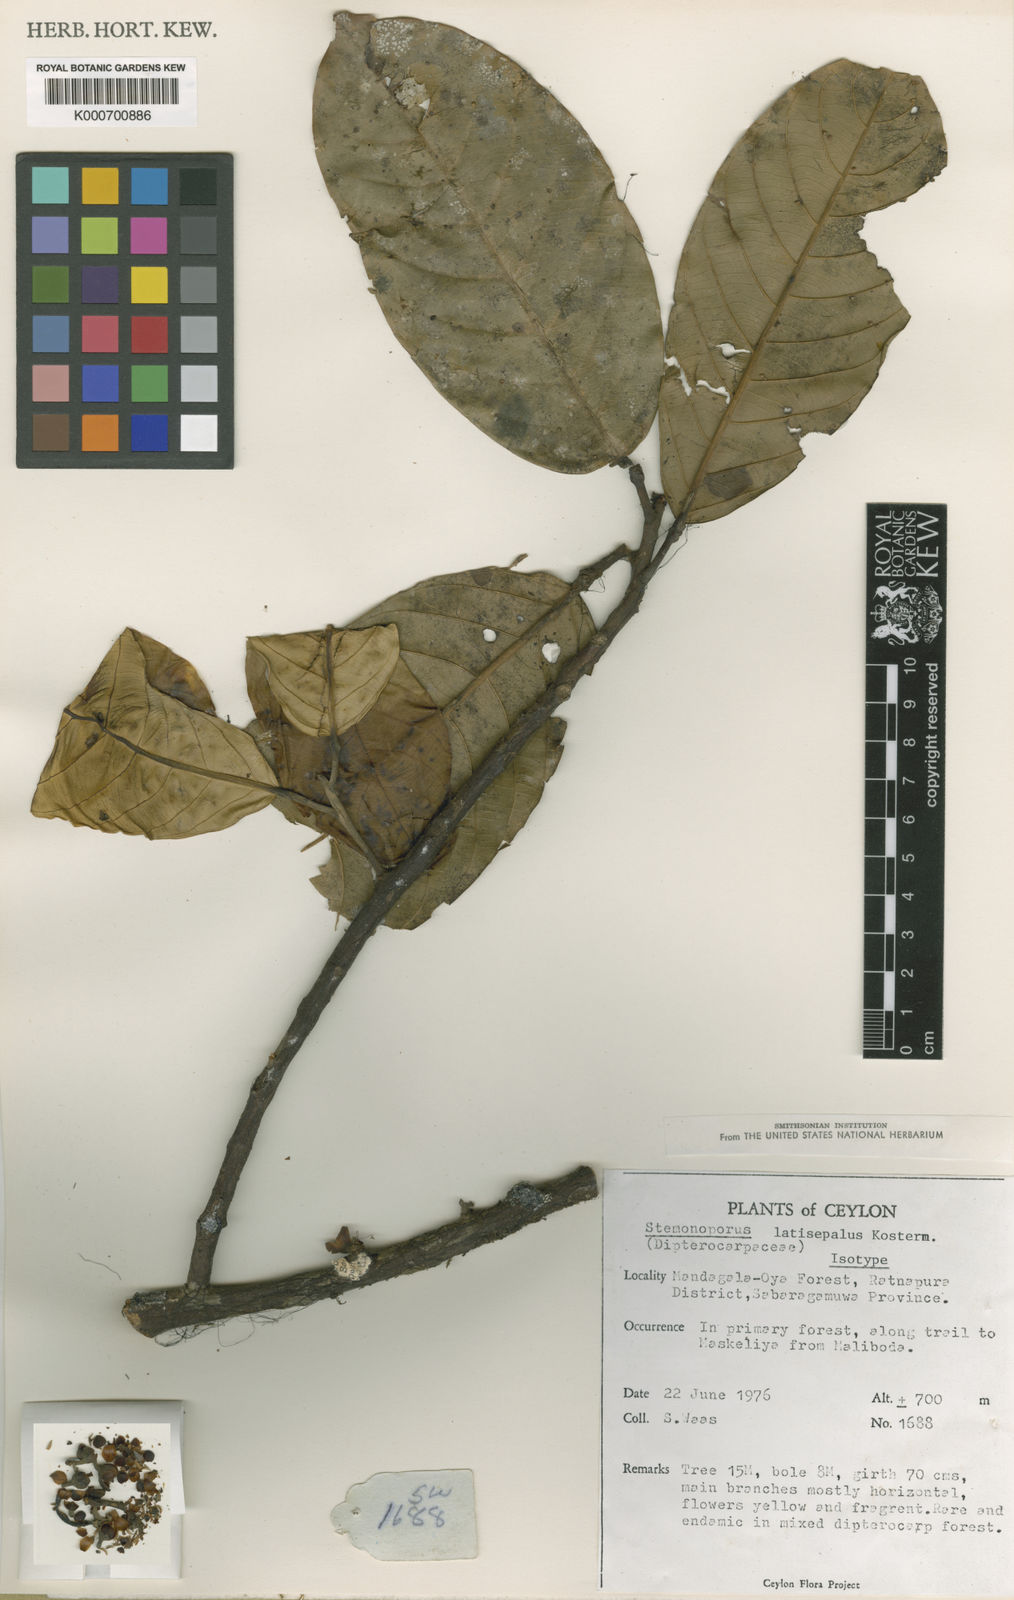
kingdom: Plantae
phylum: Tracheophyta
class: Magnoliopsida
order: Malvales
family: Dipterocarpaceae
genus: Stemonoporus
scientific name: Stemonoporus latisepalus
